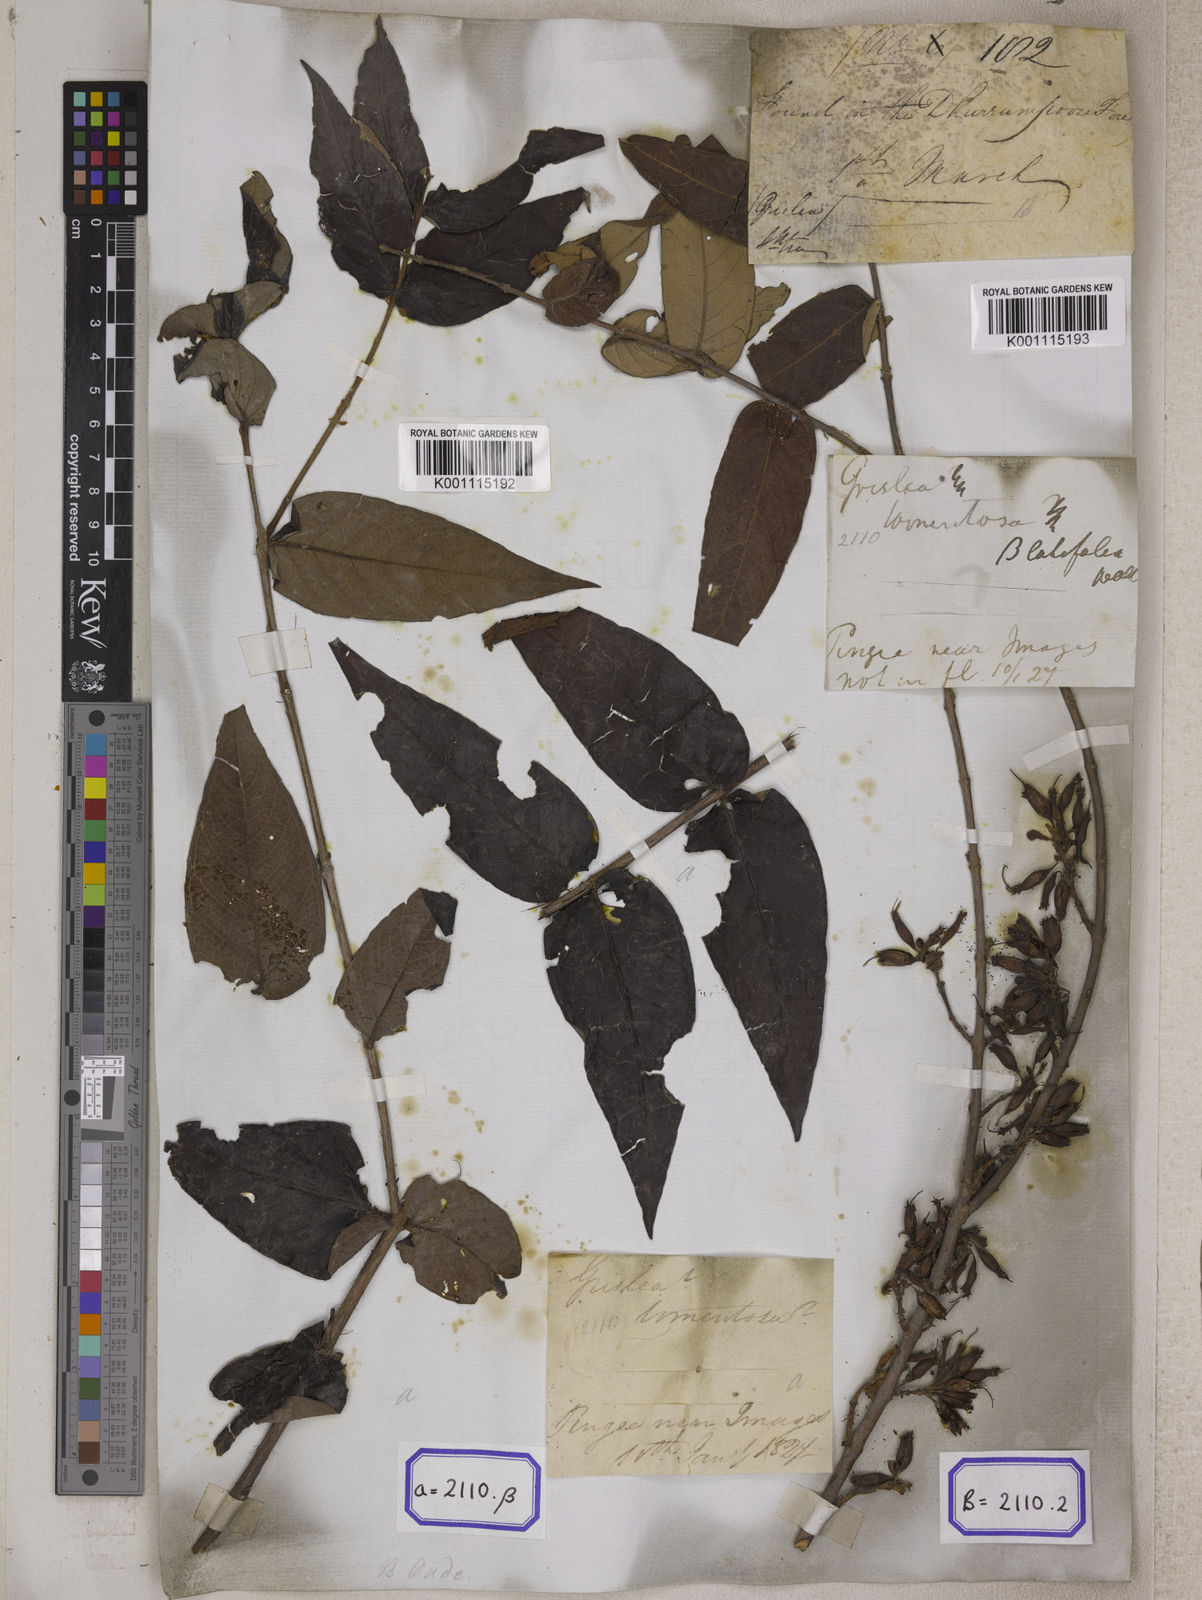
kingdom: Plantae
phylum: Tracheophyta
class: Magnoliopsida
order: Myrtales
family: Combretaceae
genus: Combretum
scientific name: Combretum
